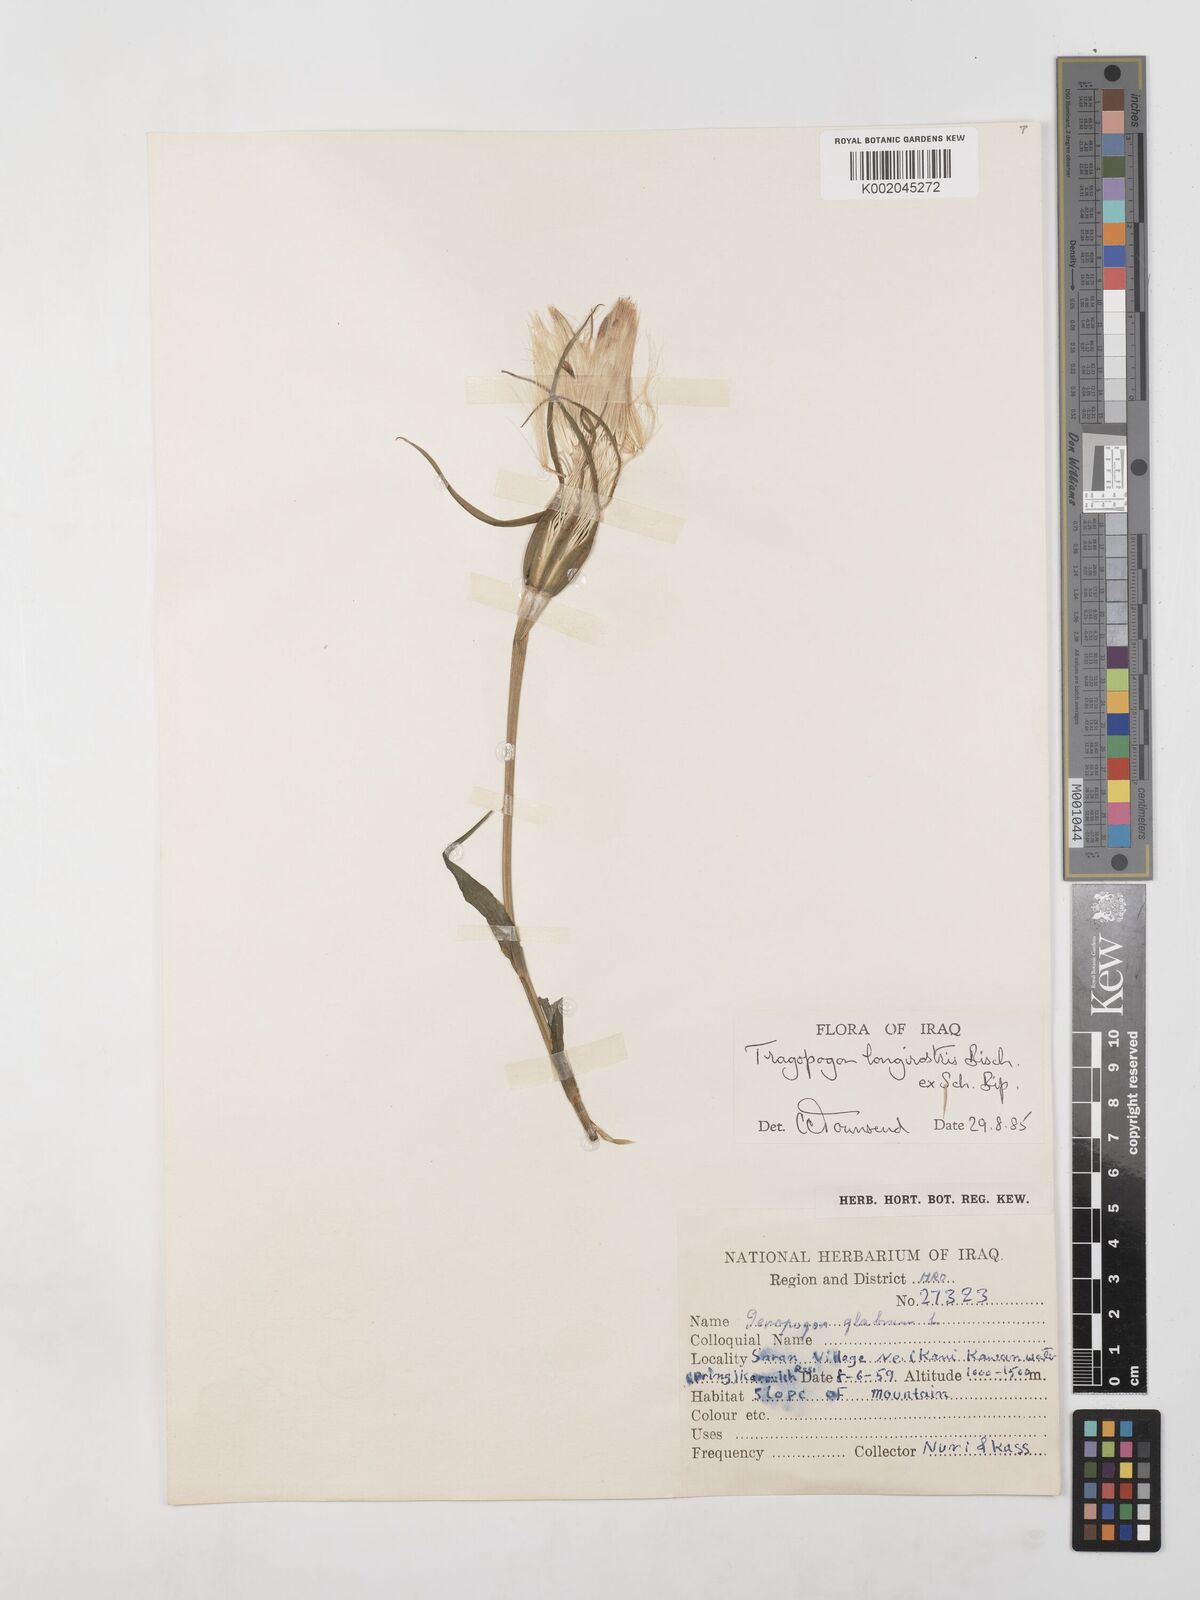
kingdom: Plantae
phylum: Tracheophyta
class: Magnoliopsida
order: Asterales
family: Asteraceae
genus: Tragopogon
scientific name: Tragopogon coelesyriacus
